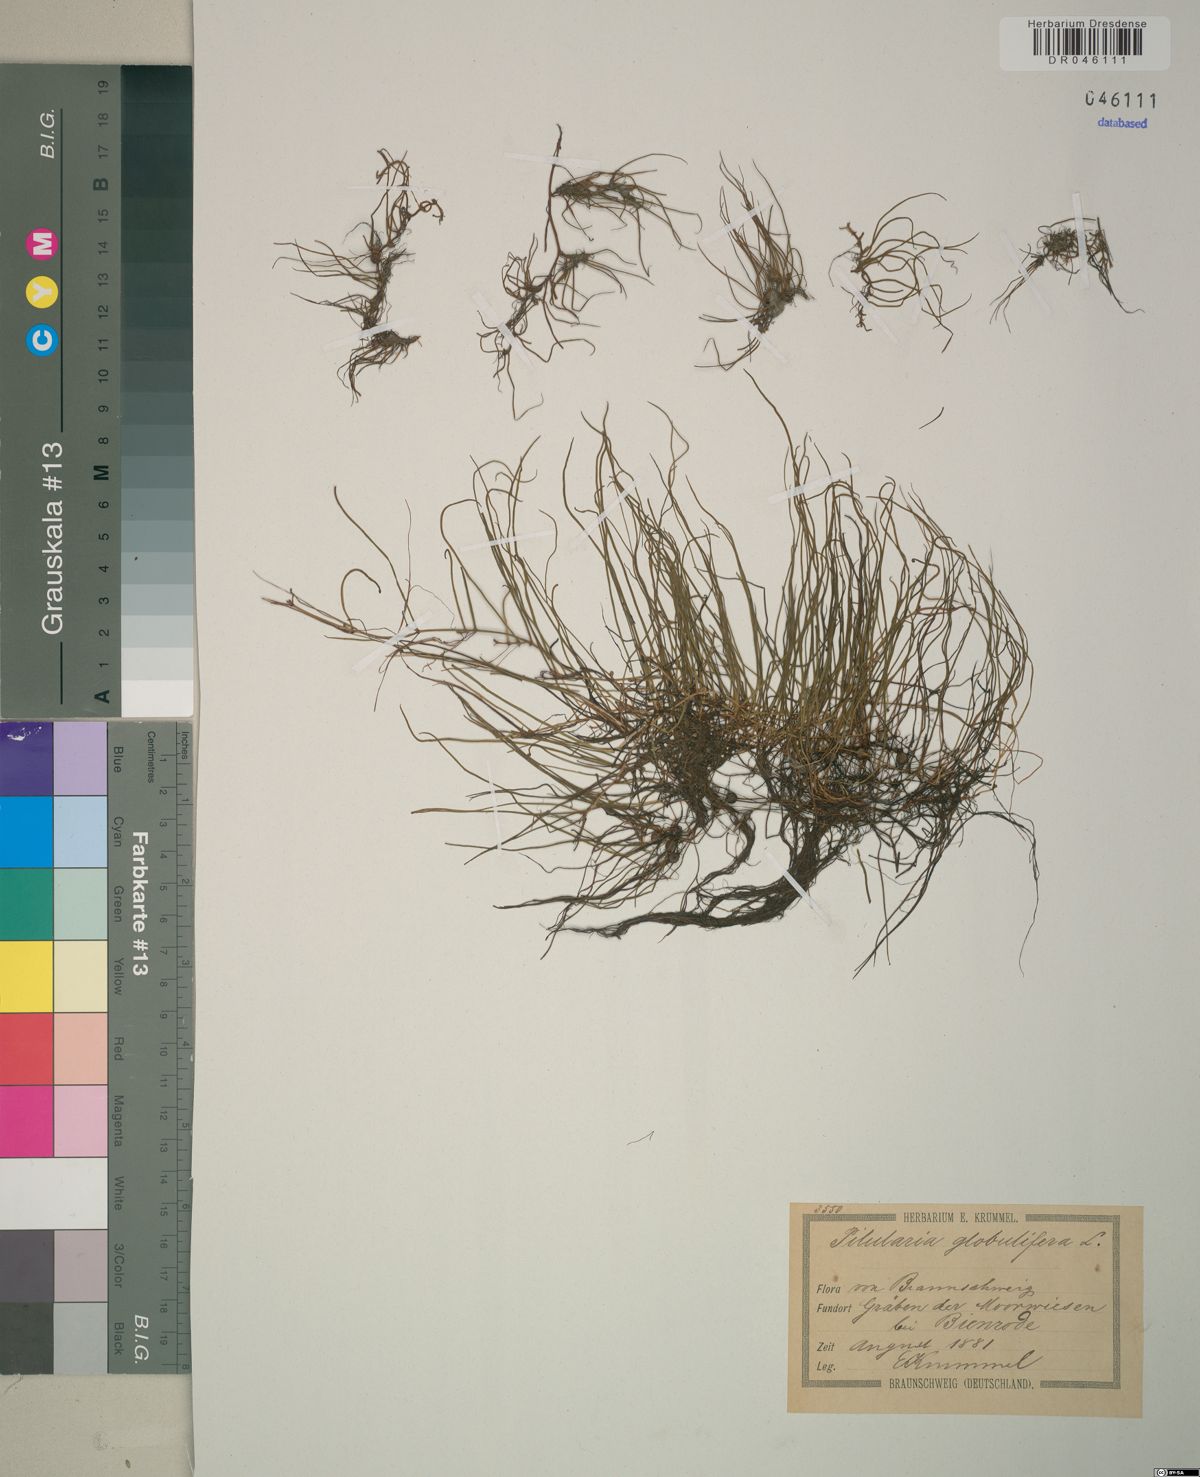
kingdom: Plantae
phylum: Tracheophyta
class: Polypodiopsida
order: Salviniales
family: Marsileaceae
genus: Pilularia
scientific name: Pilularia globulifera
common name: Pillwort
